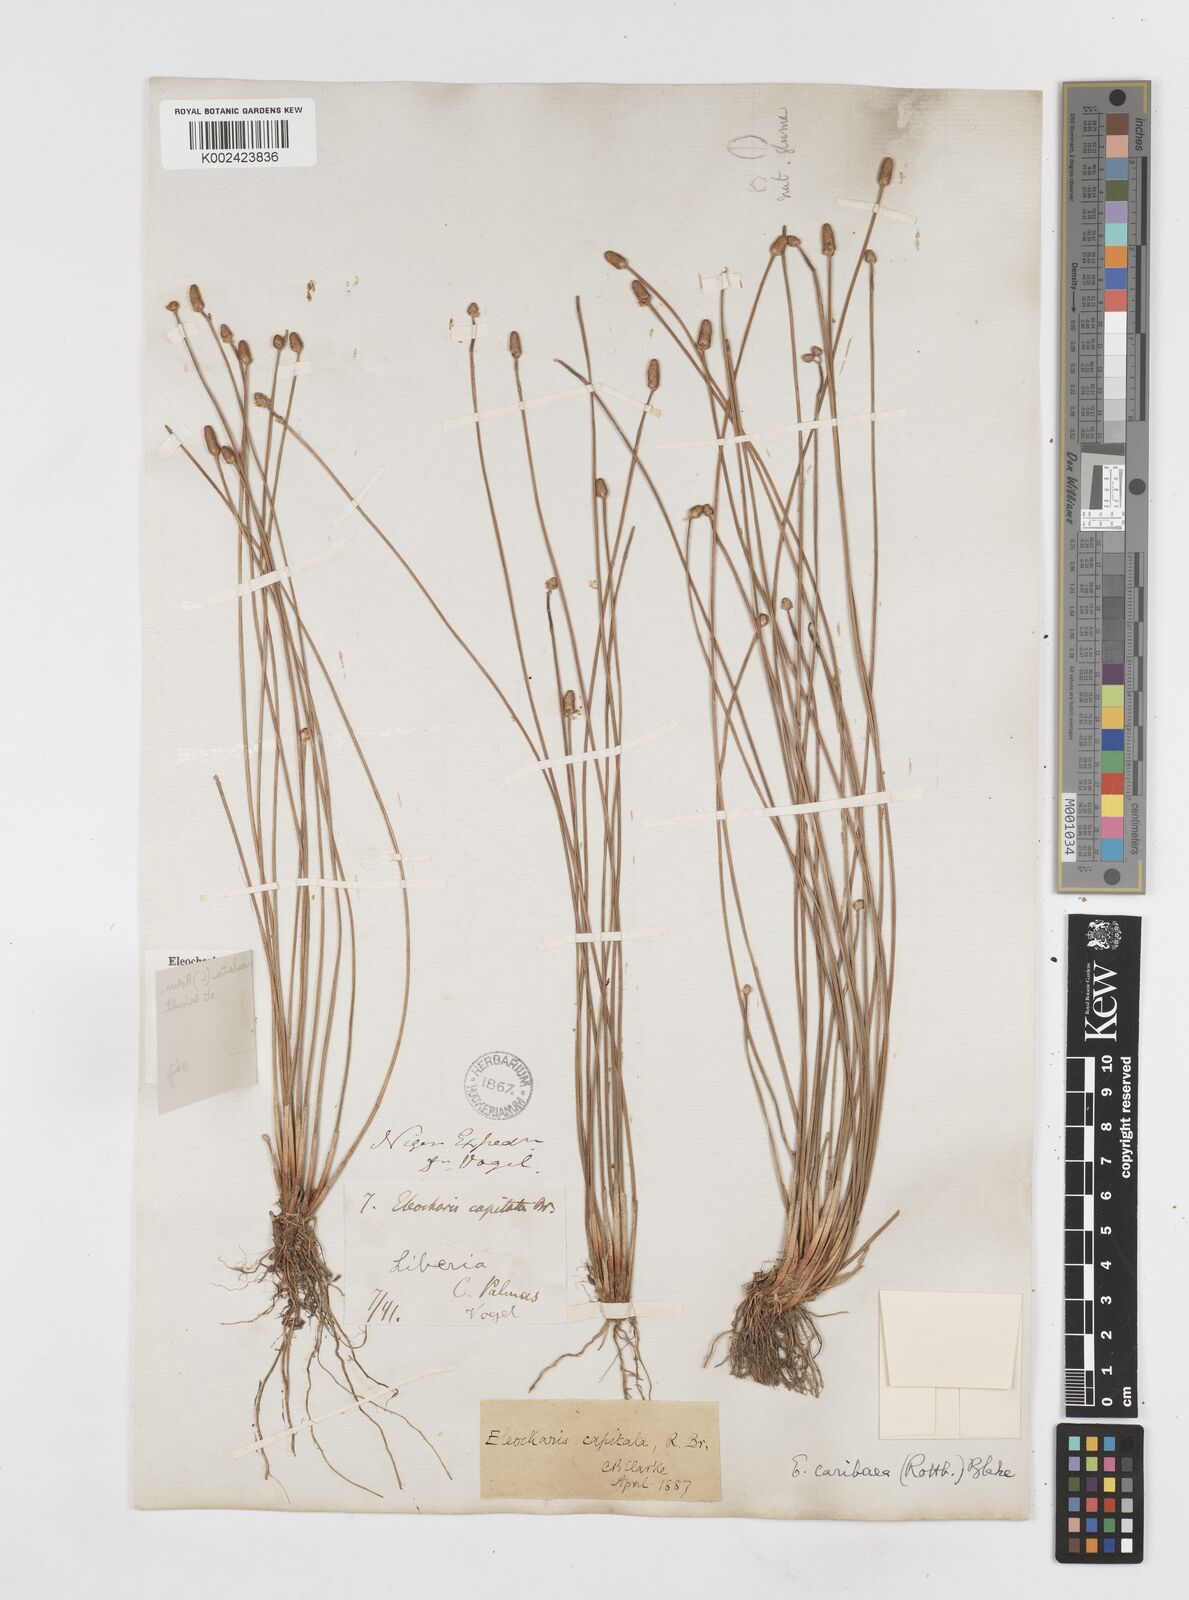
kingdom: Plantae
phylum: Tracheophyta
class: Liliopsida
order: Poales
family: Cyperaceae
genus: Eleocharis
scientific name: Eleocharis geniculata
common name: Canada spikesedge
